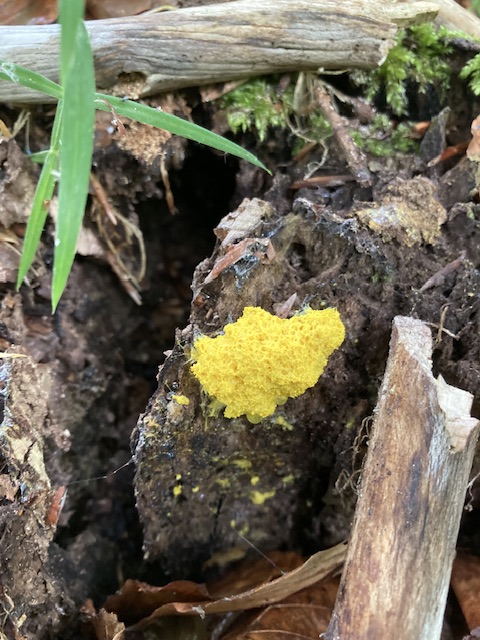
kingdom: Protozoa
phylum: Mycetozoa
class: Myxomycetes
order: Physarales
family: Physaraceae
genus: Fuligo
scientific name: Fuligo septica
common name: gul troldsmør
